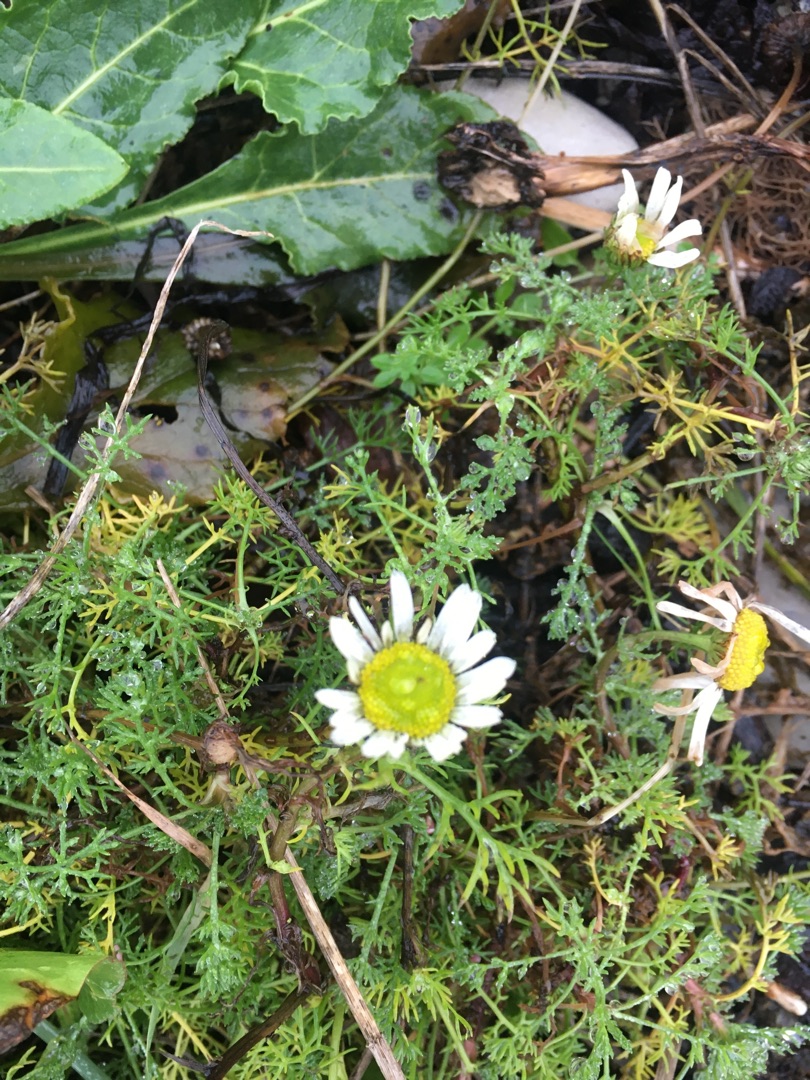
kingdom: Plantae
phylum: Tracheophyta
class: Magnoliopsida
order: Asterales
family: Asteraceae
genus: Tripleurospermum
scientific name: Tripleurospermum maritimum
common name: Strand-kamille
